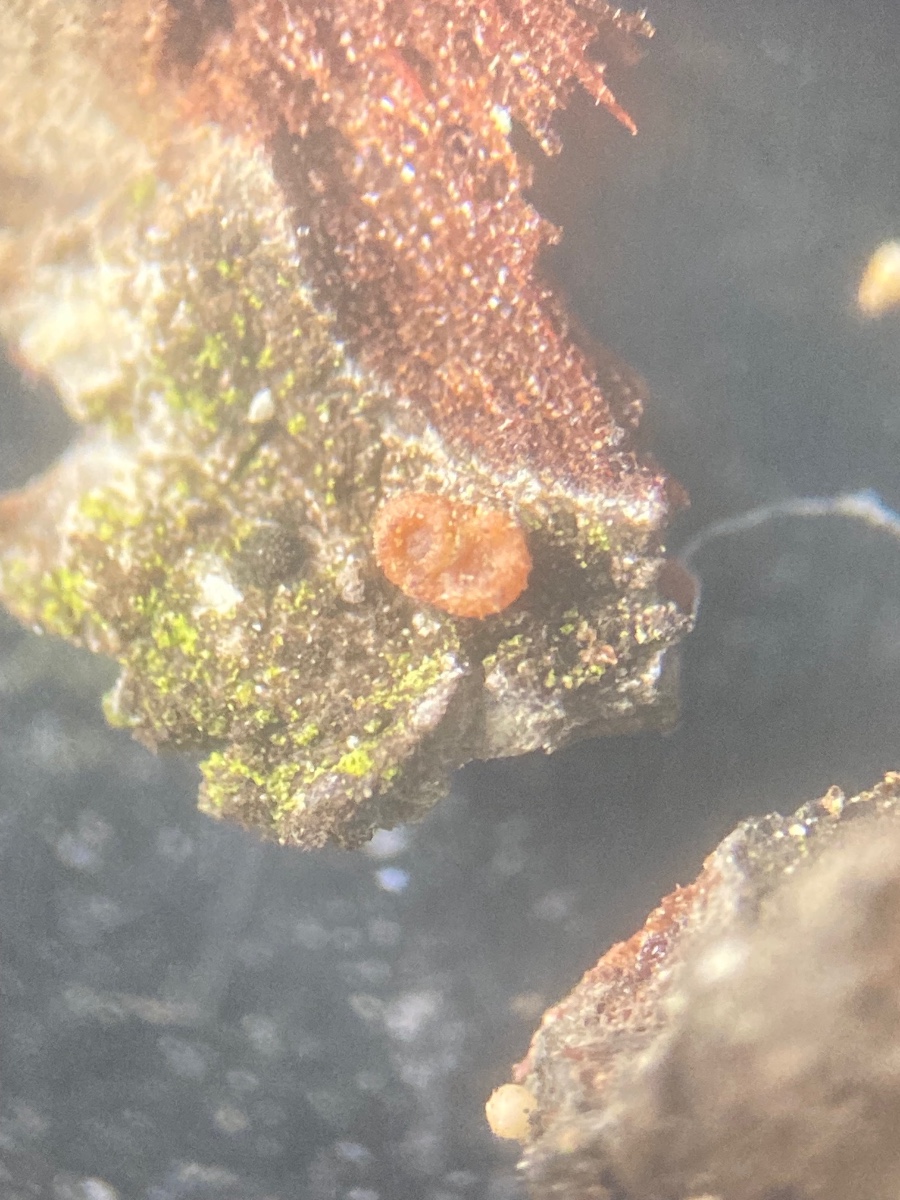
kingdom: Fungi
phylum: Ascomycota
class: Sareomycetes
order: Sareales
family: Sareaceae
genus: Sarea
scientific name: Sarea resinae
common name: orangegul harpiksskive
